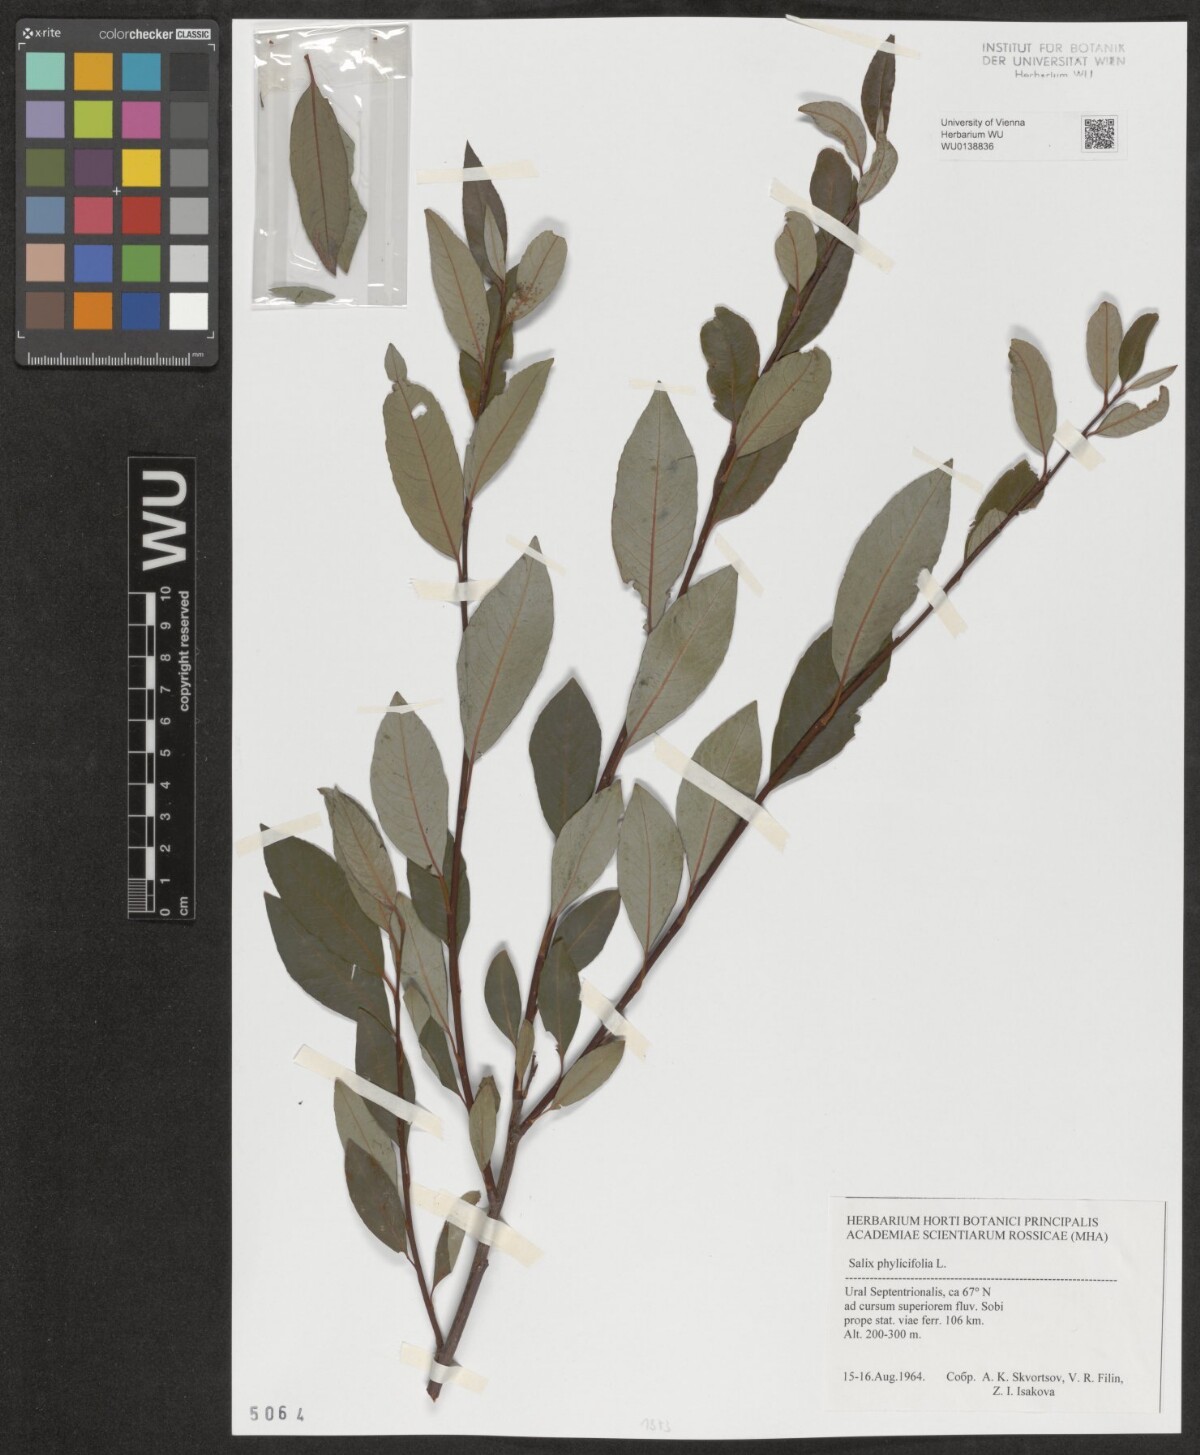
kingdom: Plantae
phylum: Tracheophyta
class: Magnoliopsida
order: Malpighiales
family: Salicaceae
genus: Salix
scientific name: Salix phylicifolia
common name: Tea-leaved willow
